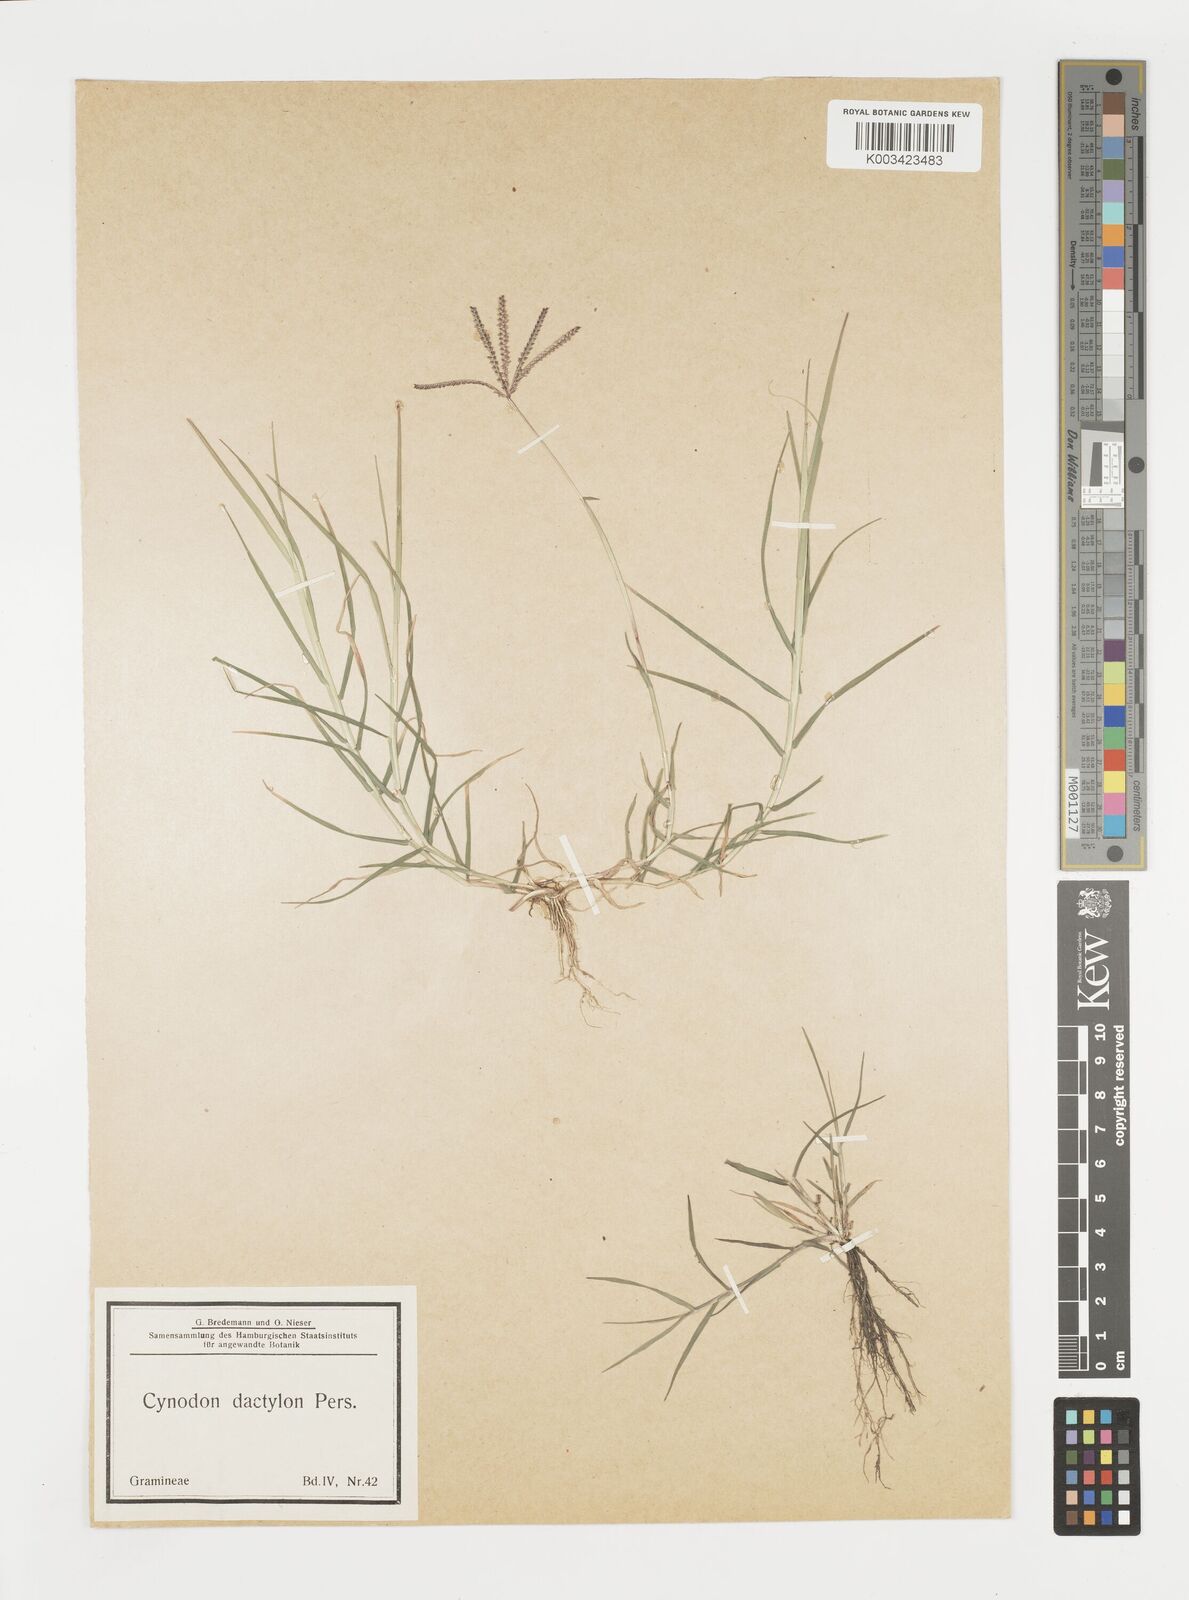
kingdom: Plantae
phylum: Tracheophyta
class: Liliopsida
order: Poales
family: Poaceae
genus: Cynodon
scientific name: Cynodon dactylon
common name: Bermuda grass
